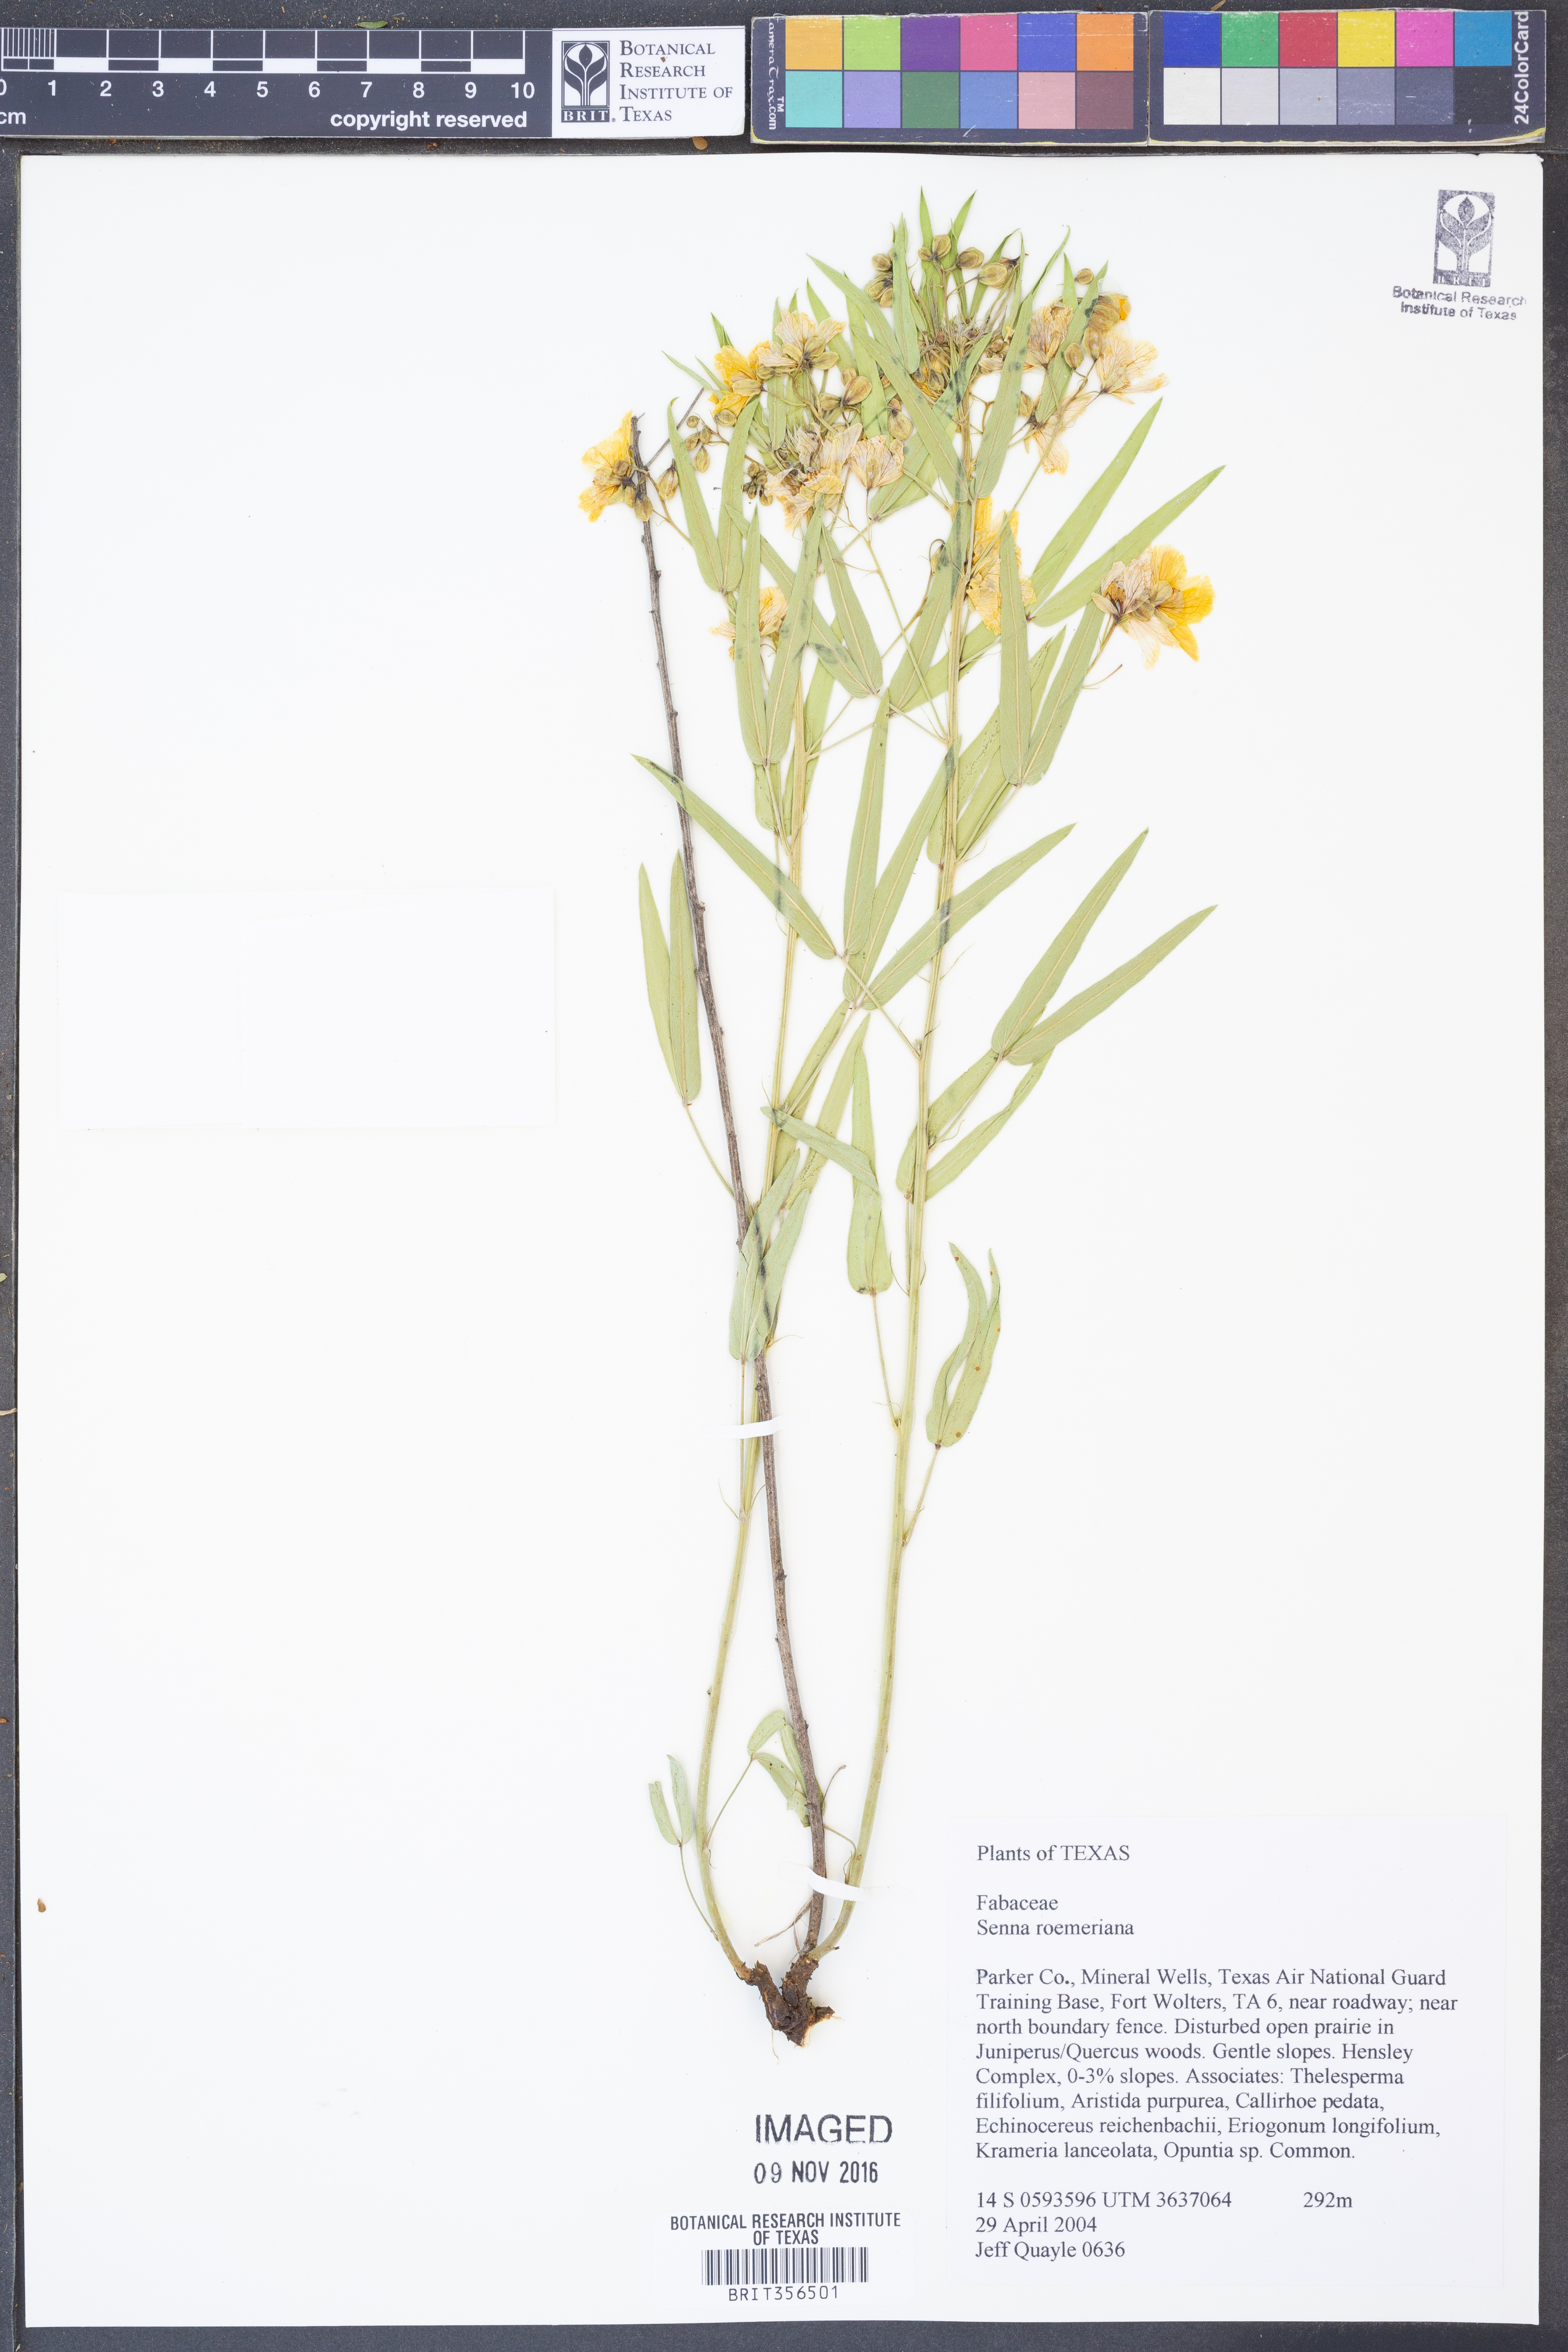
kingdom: Plantae
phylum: Tracheophyta
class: Magnoliopsida
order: Fabales
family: Fabaceae
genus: Senna
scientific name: Senna roemeriana
